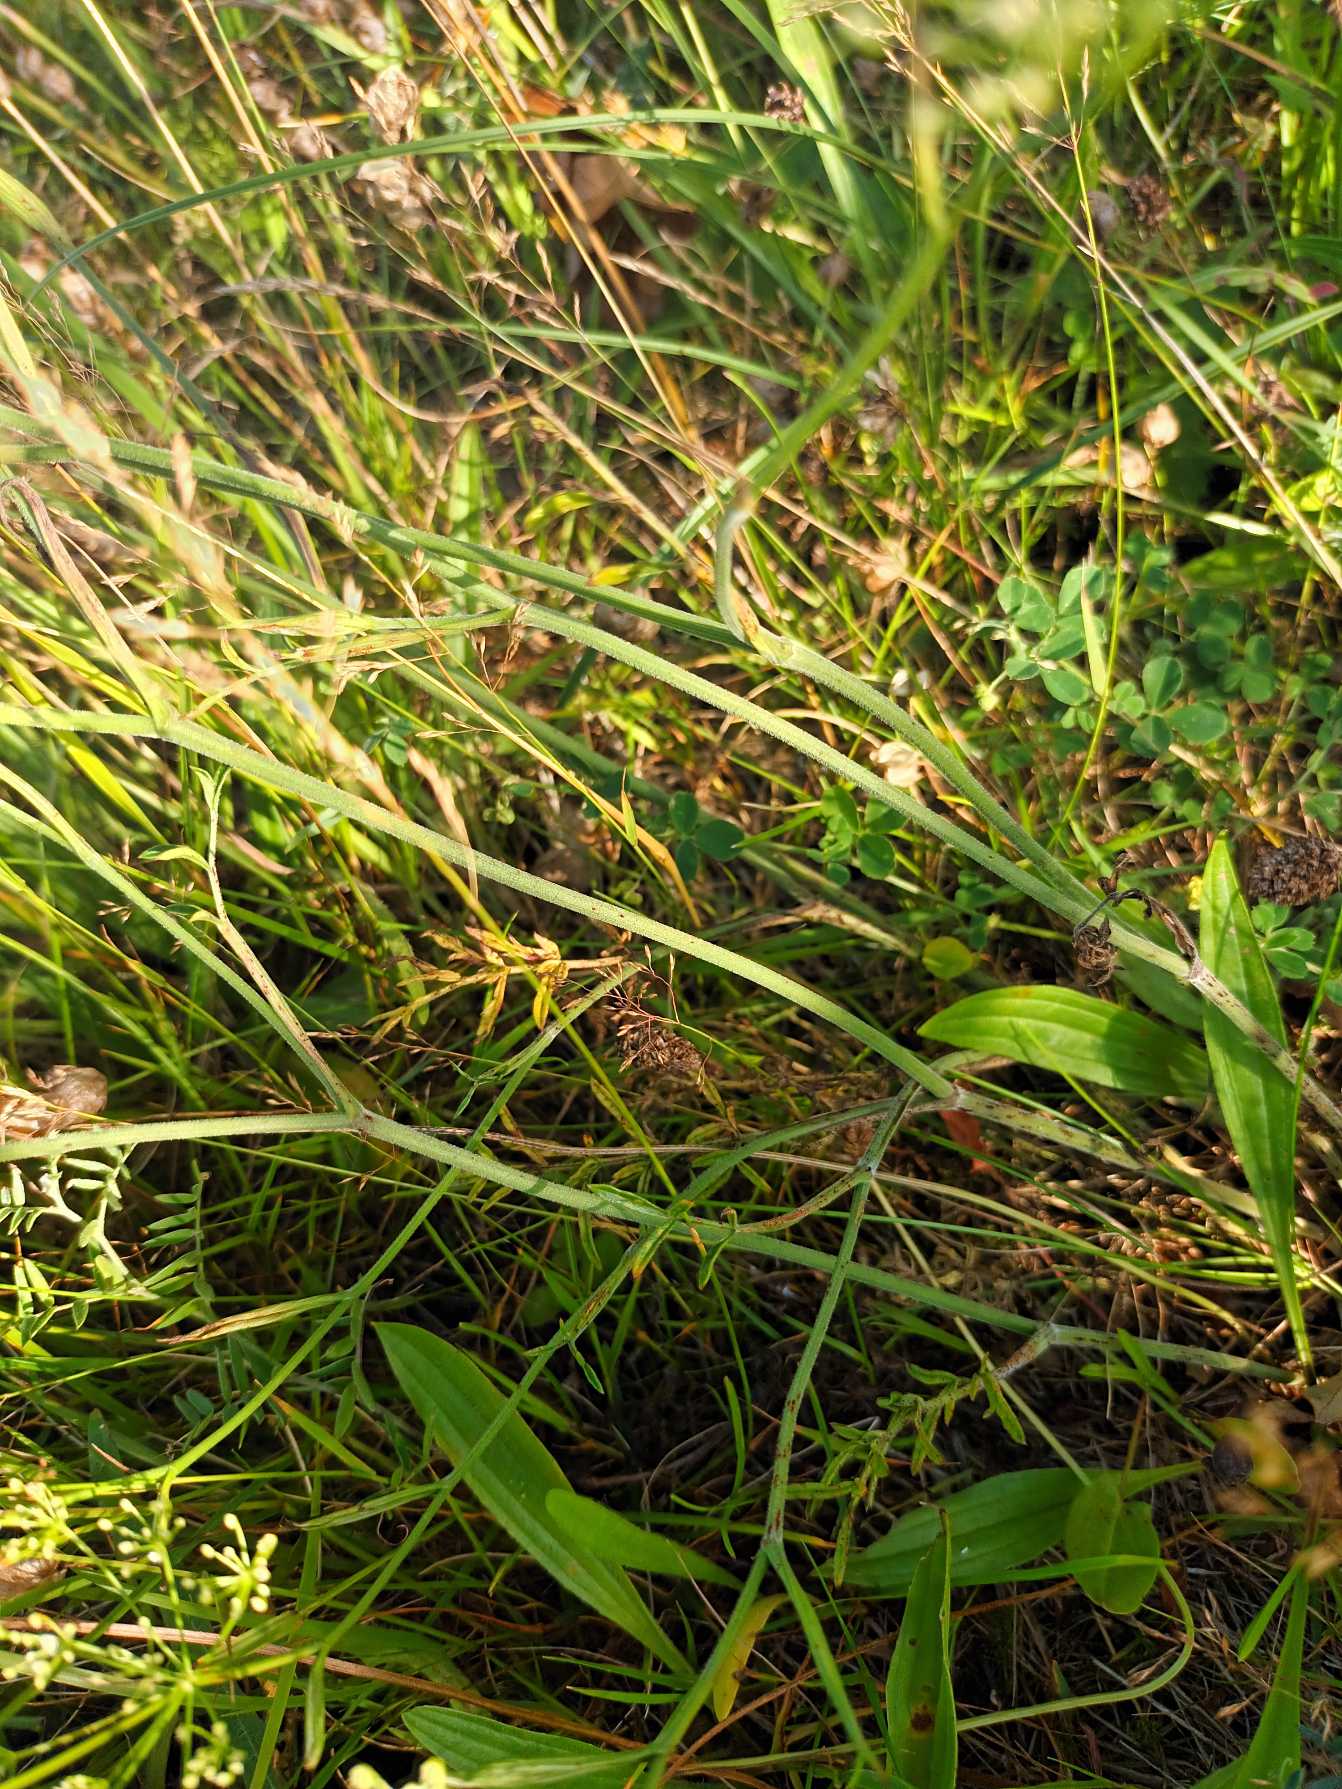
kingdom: Plantae
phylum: Tracheophyta
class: Magnoliopsida
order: Apiales
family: Apiaceae
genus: Pimpinella
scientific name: Pimpinella saxifraga
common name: Almindelig pimpinelle
